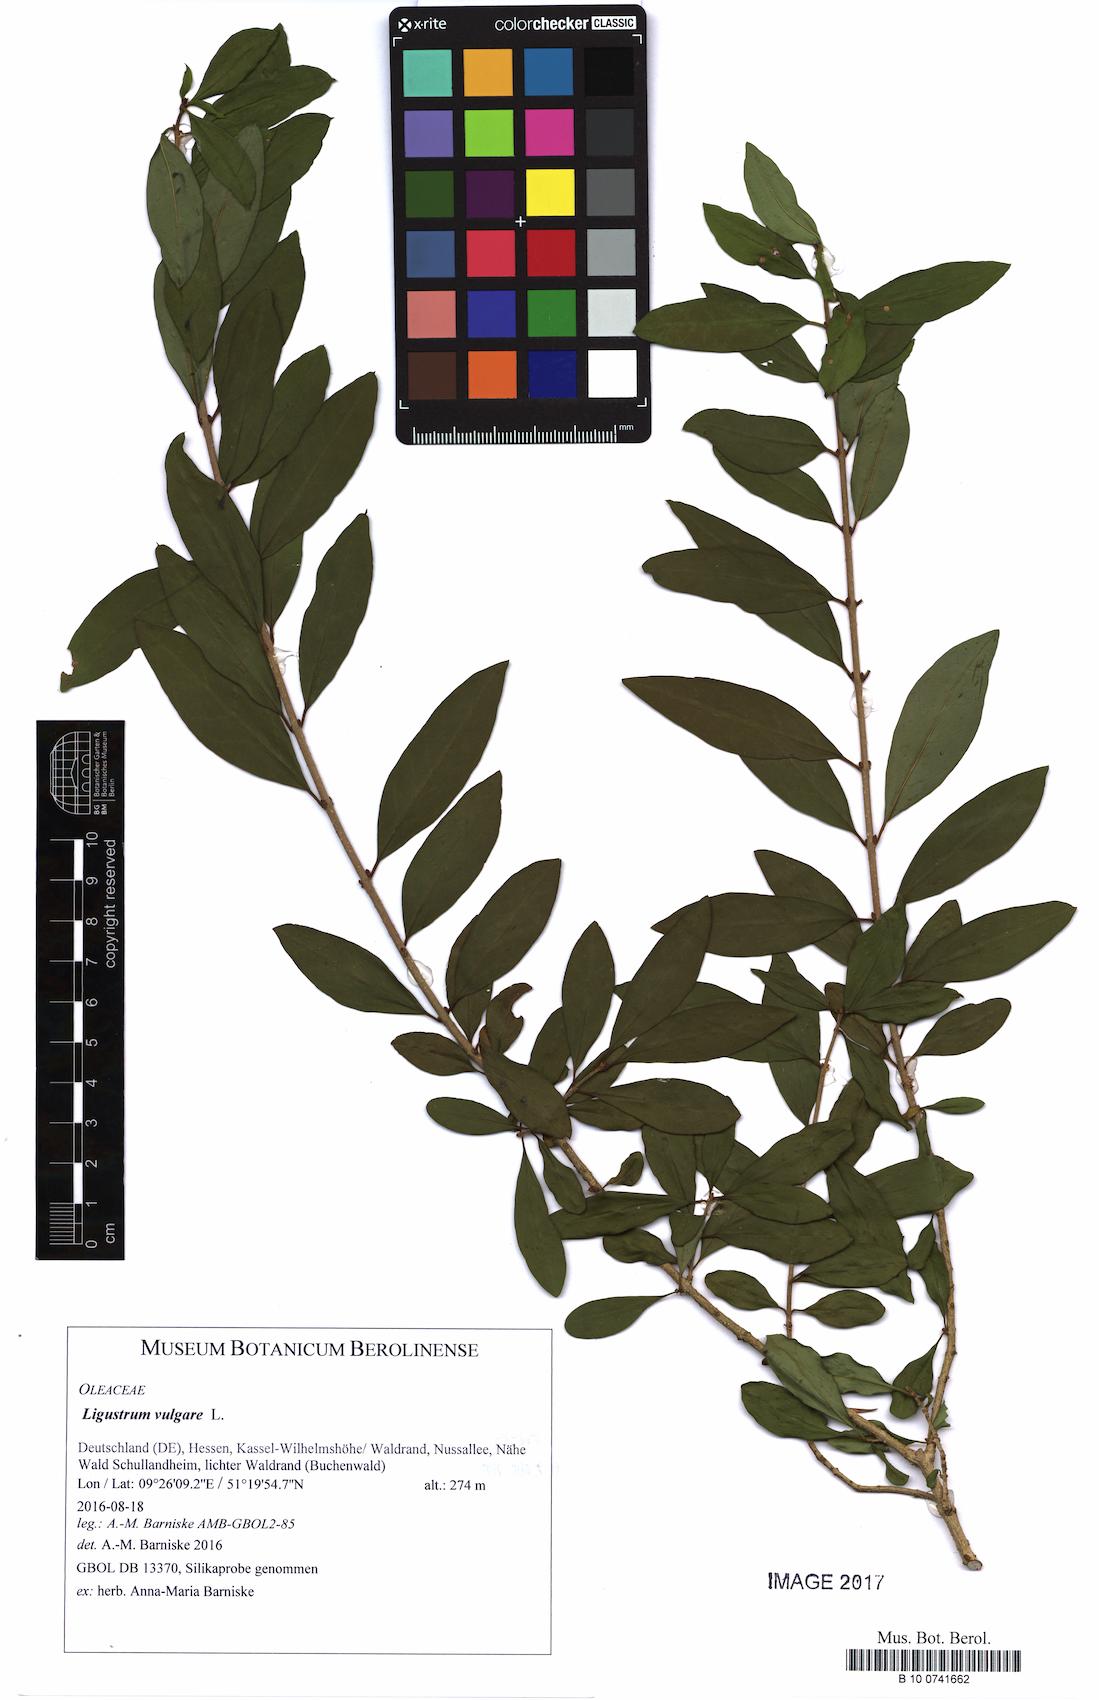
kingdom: Plantae
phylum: Tracheophyta
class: Magnoliopsida
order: Lamiales
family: Oleaceae
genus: Ligustrum
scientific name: Ligustrum vulgare
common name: Wild privet
